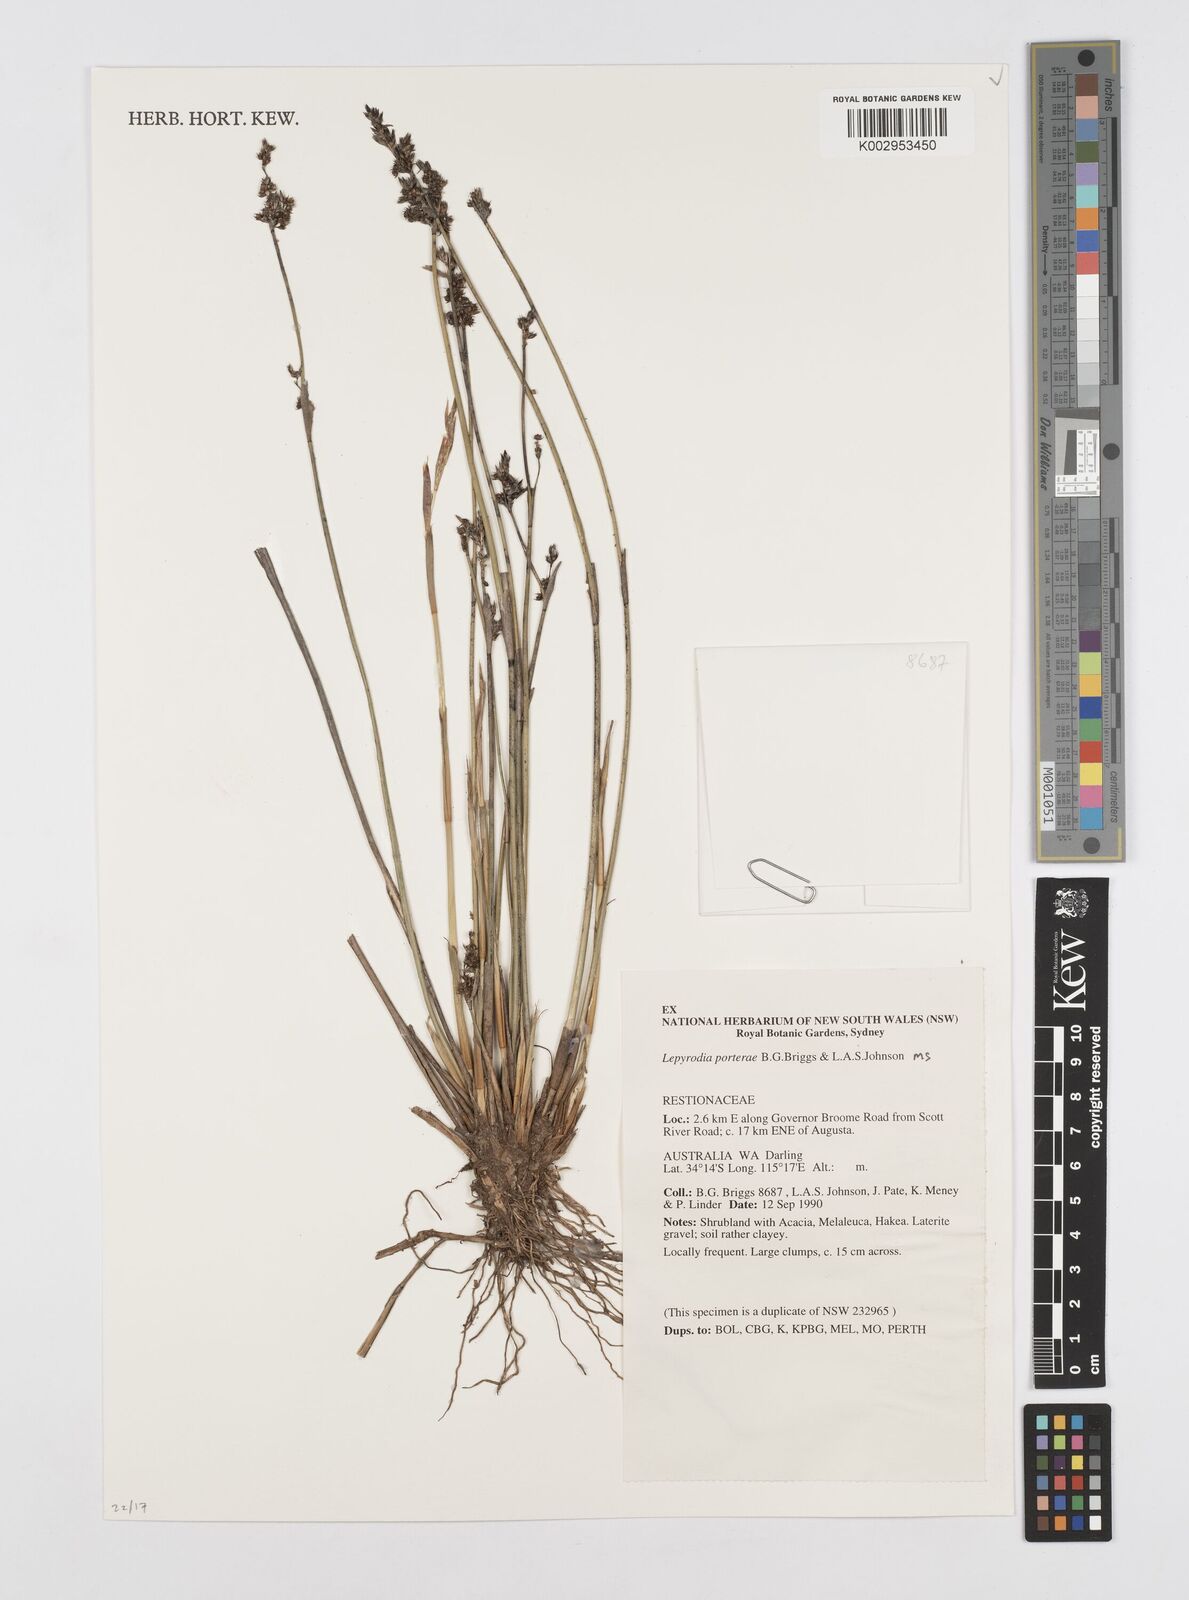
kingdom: Plantae
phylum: Tracheophyta
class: Liliopsida
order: Poales
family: Restionaceae
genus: Lepyrodia
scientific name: Lepyrodia porterae
